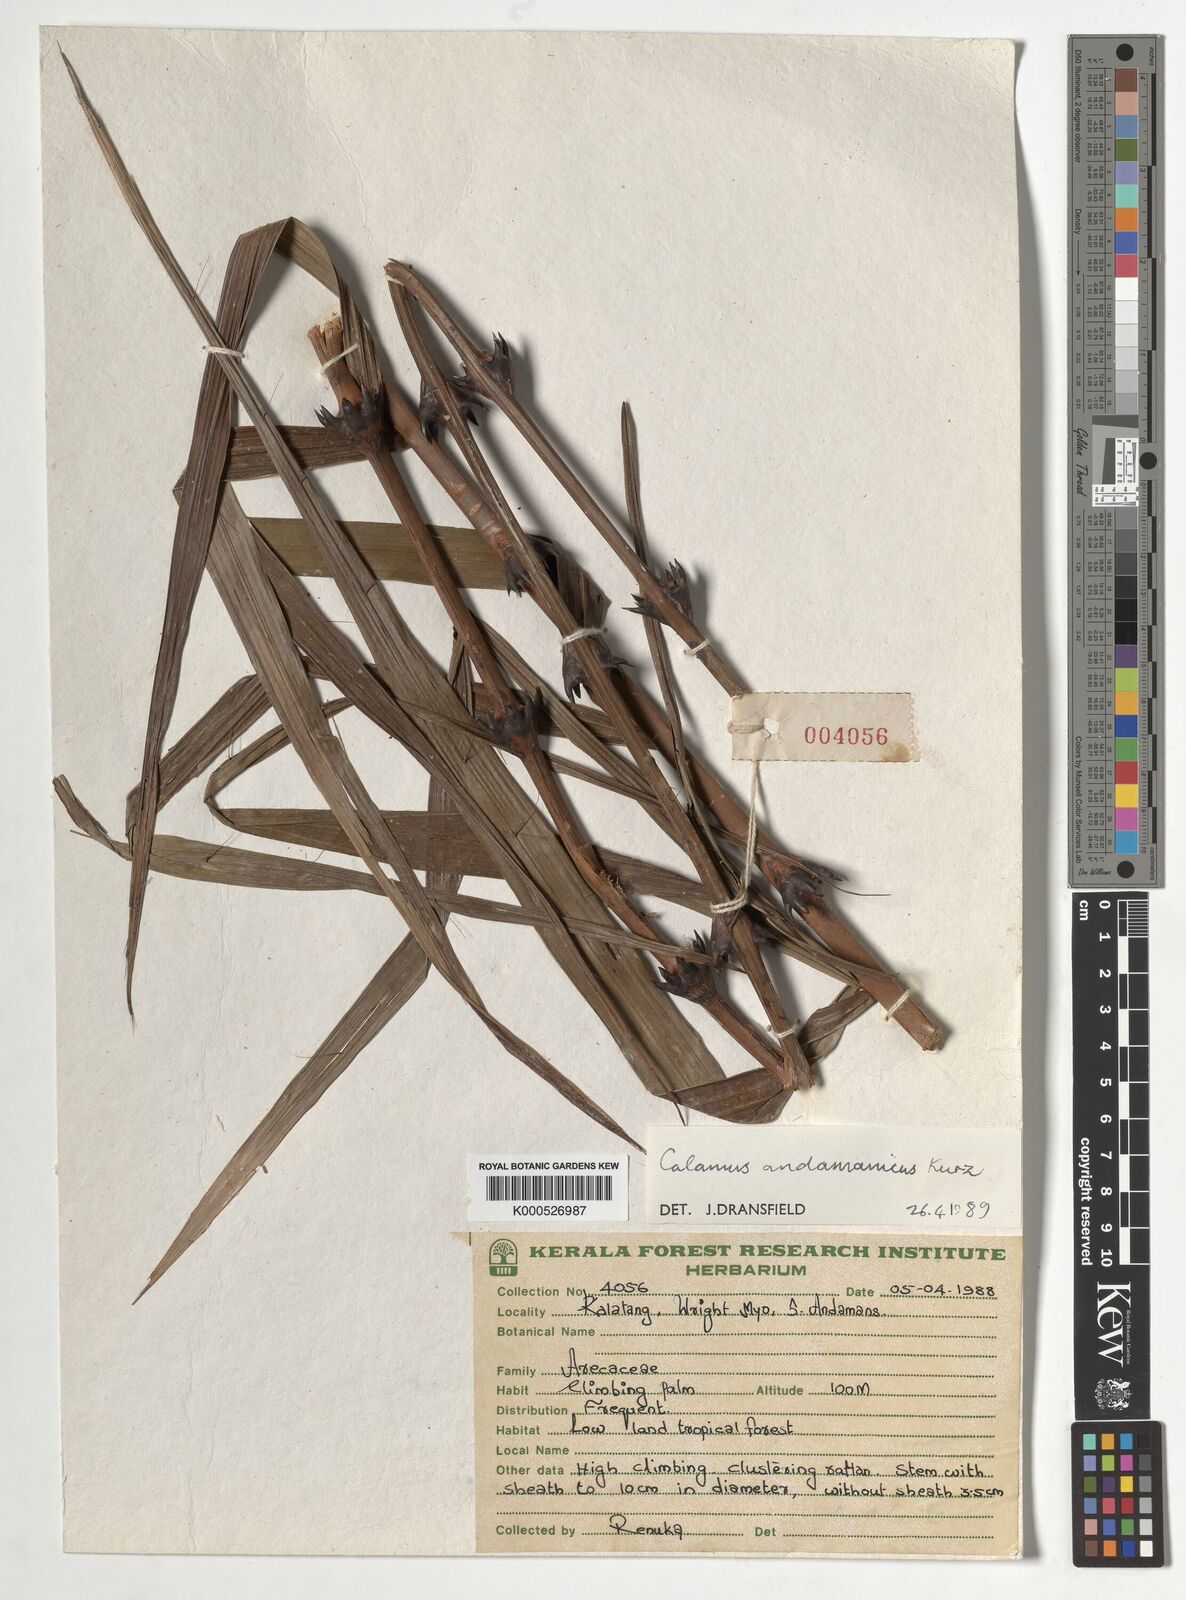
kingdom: Plantae
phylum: Tracheophyta
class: Liliopsida
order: Arecales
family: Arecaceae
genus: Calamus
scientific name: Calamus andamanicus
